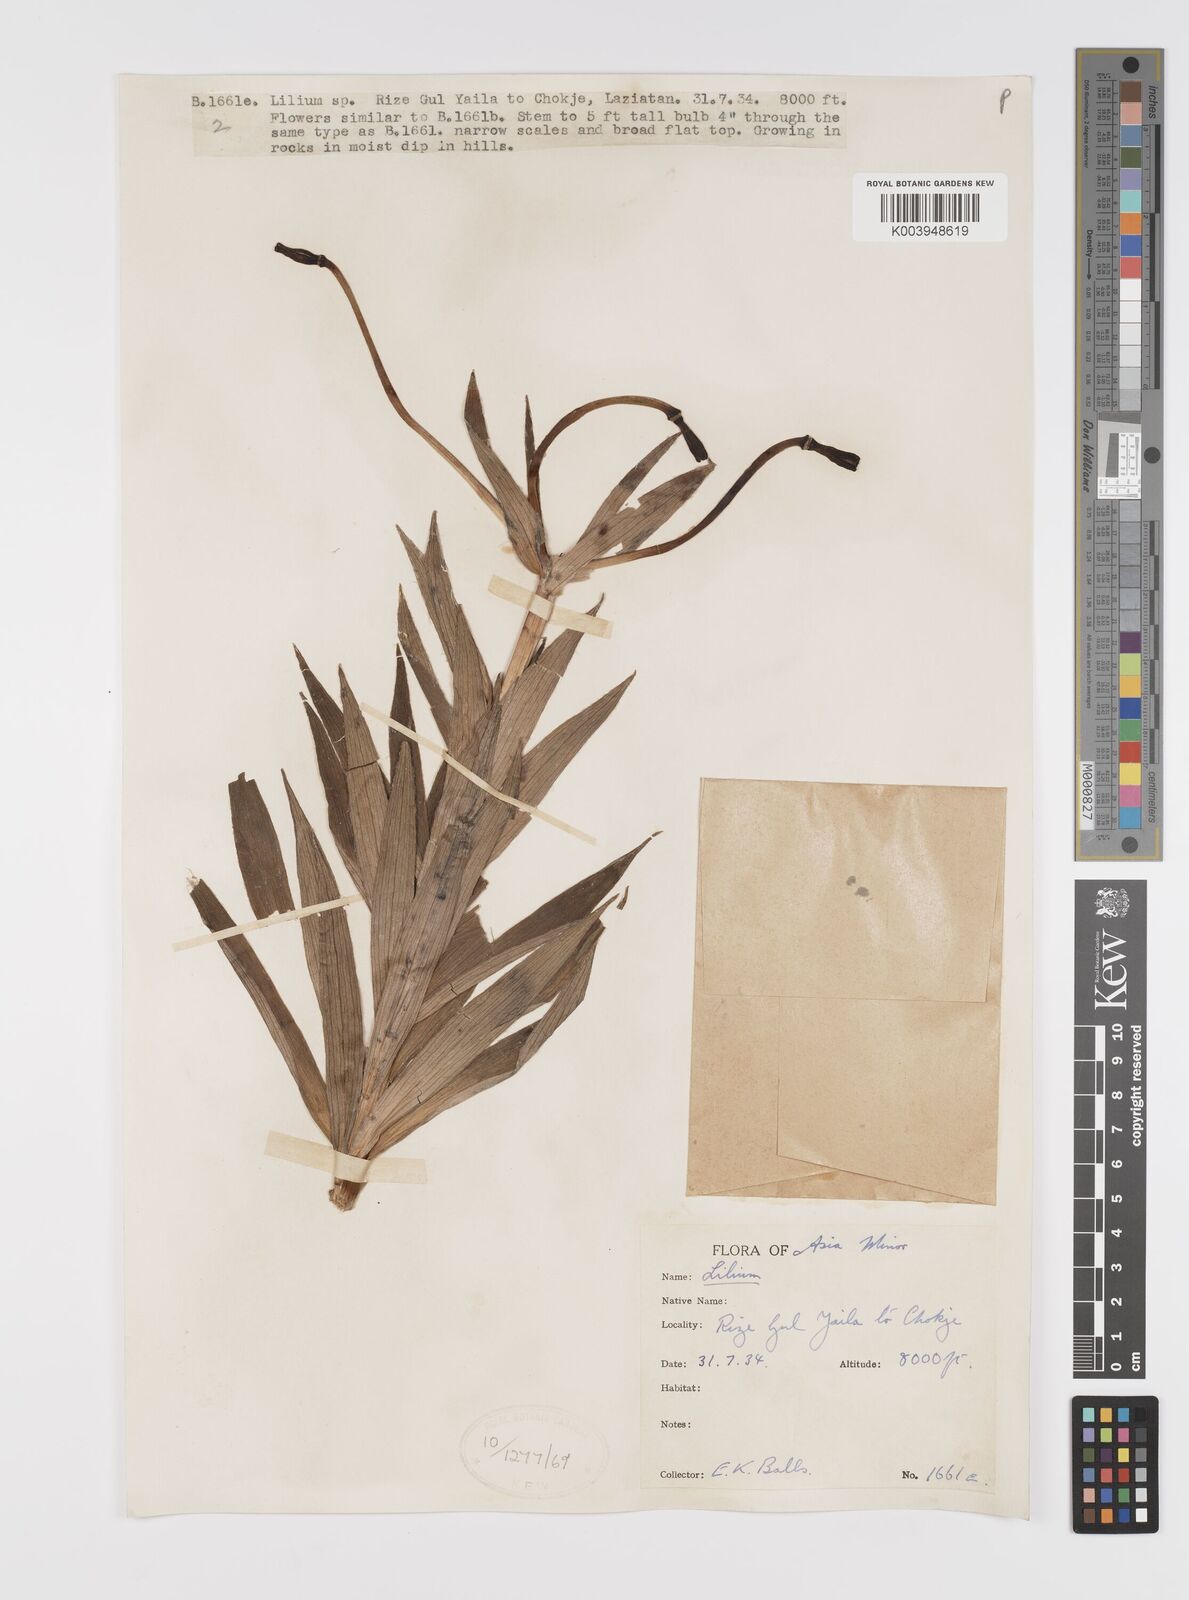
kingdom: Plantae
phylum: Tracheophyta
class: Liliopsida
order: Liliales
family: Liliaceae
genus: Lilium
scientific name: Lilium ciliatum
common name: Ciliate lily
